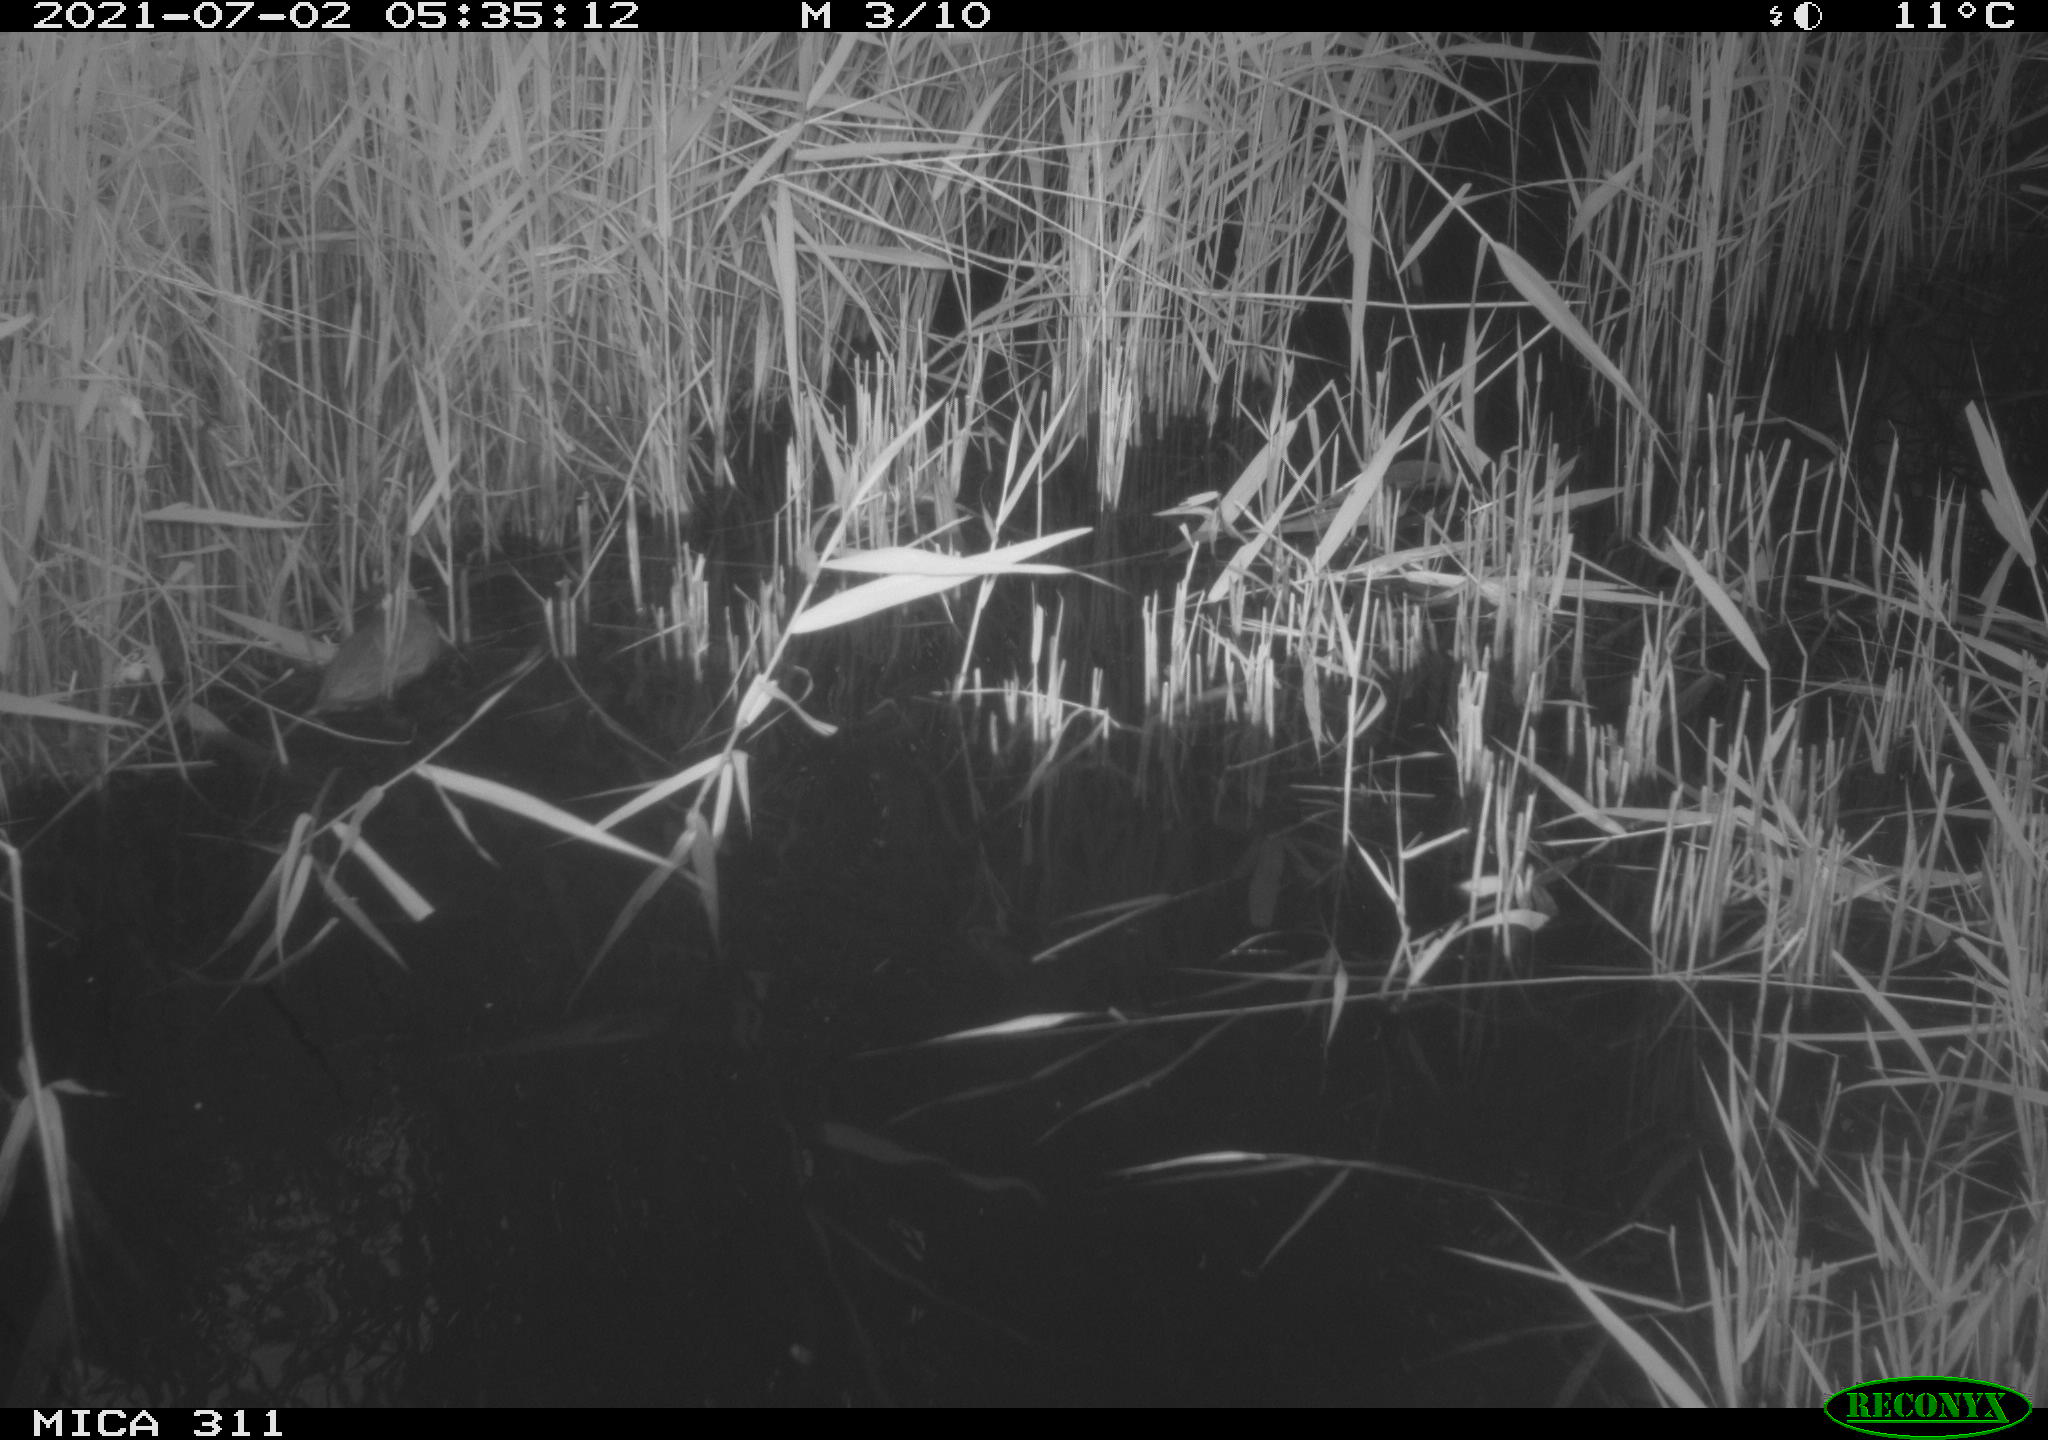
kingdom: Animalia
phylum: Chordata
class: Mammalia
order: Rodentia
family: Muridae
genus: Rattus
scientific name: Rattus norvegicus
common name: Brown rat
